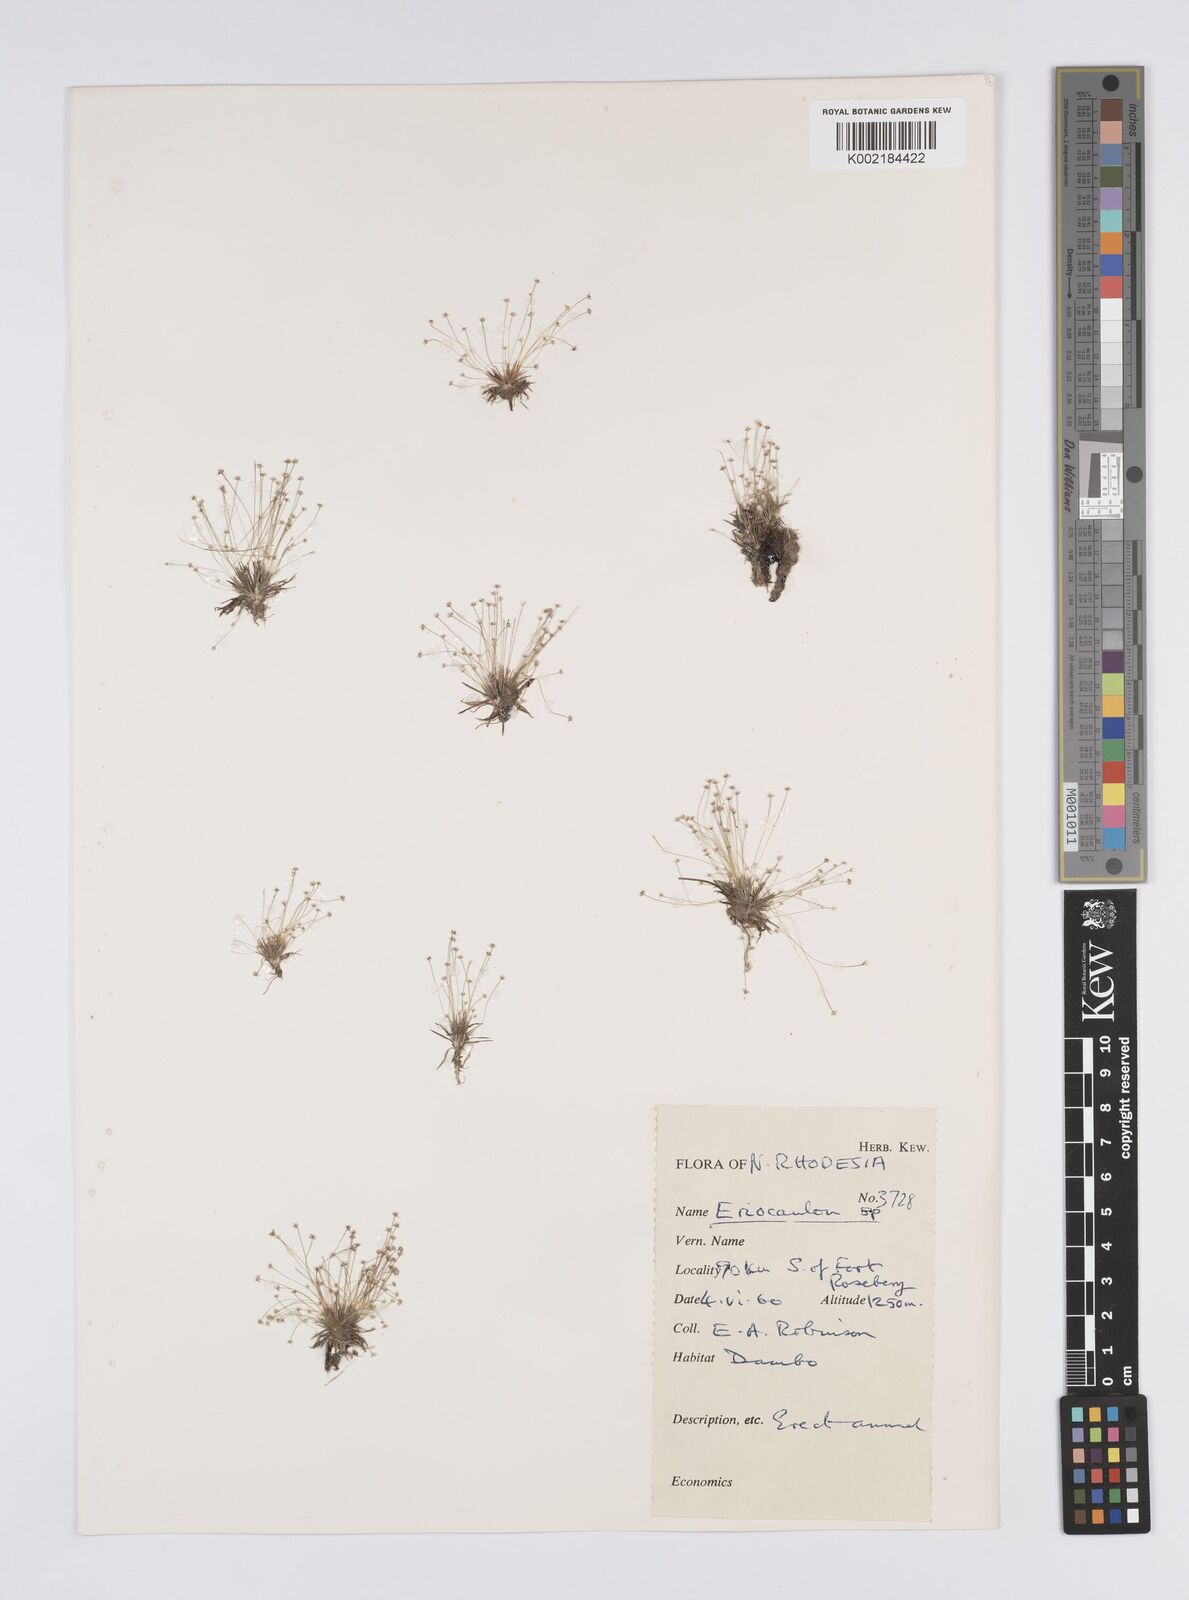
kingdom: Plantae
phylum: Tracheophyta
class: Liliopsida
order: Poales
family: Eriocaulaceae
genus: Eriocaulon
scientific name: Eriocaulon
